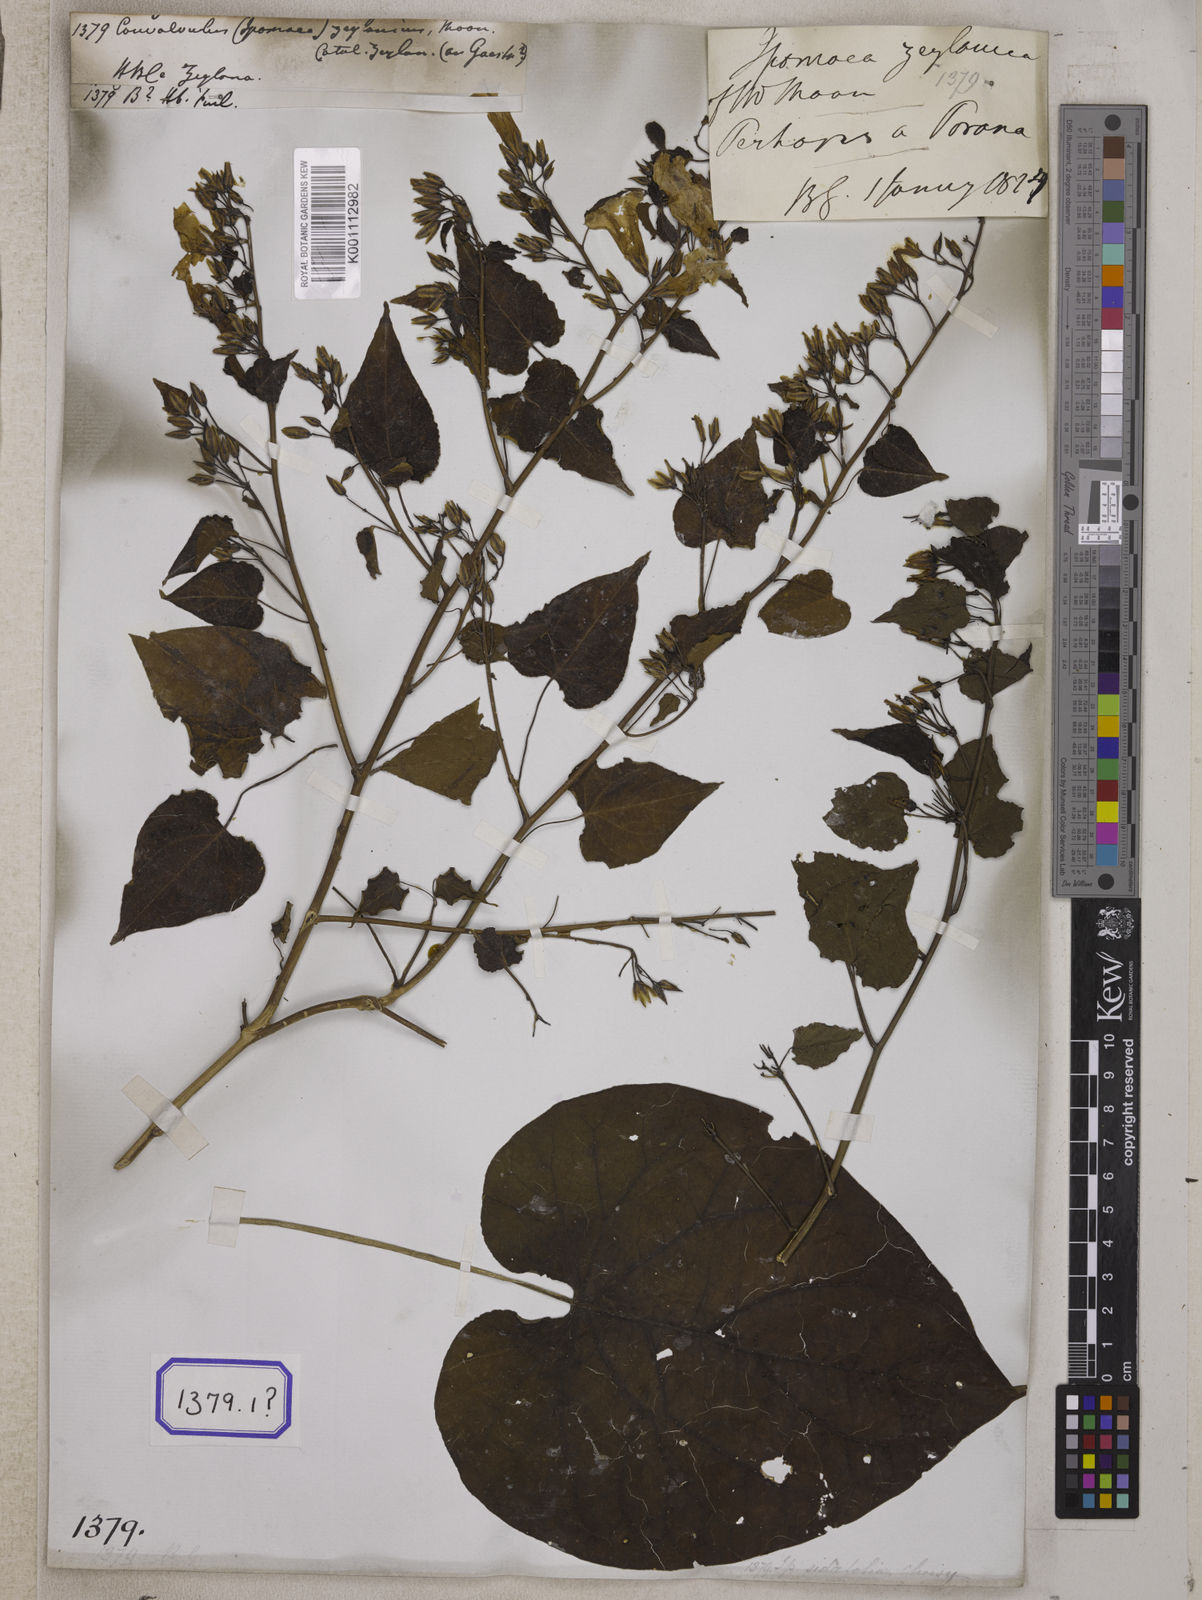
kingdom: Plantae
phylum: Tracheophyta
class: Magnoliopsida
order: Solanales
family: Convolvulaceae
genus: Convolvulus
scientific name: Convolvulus
